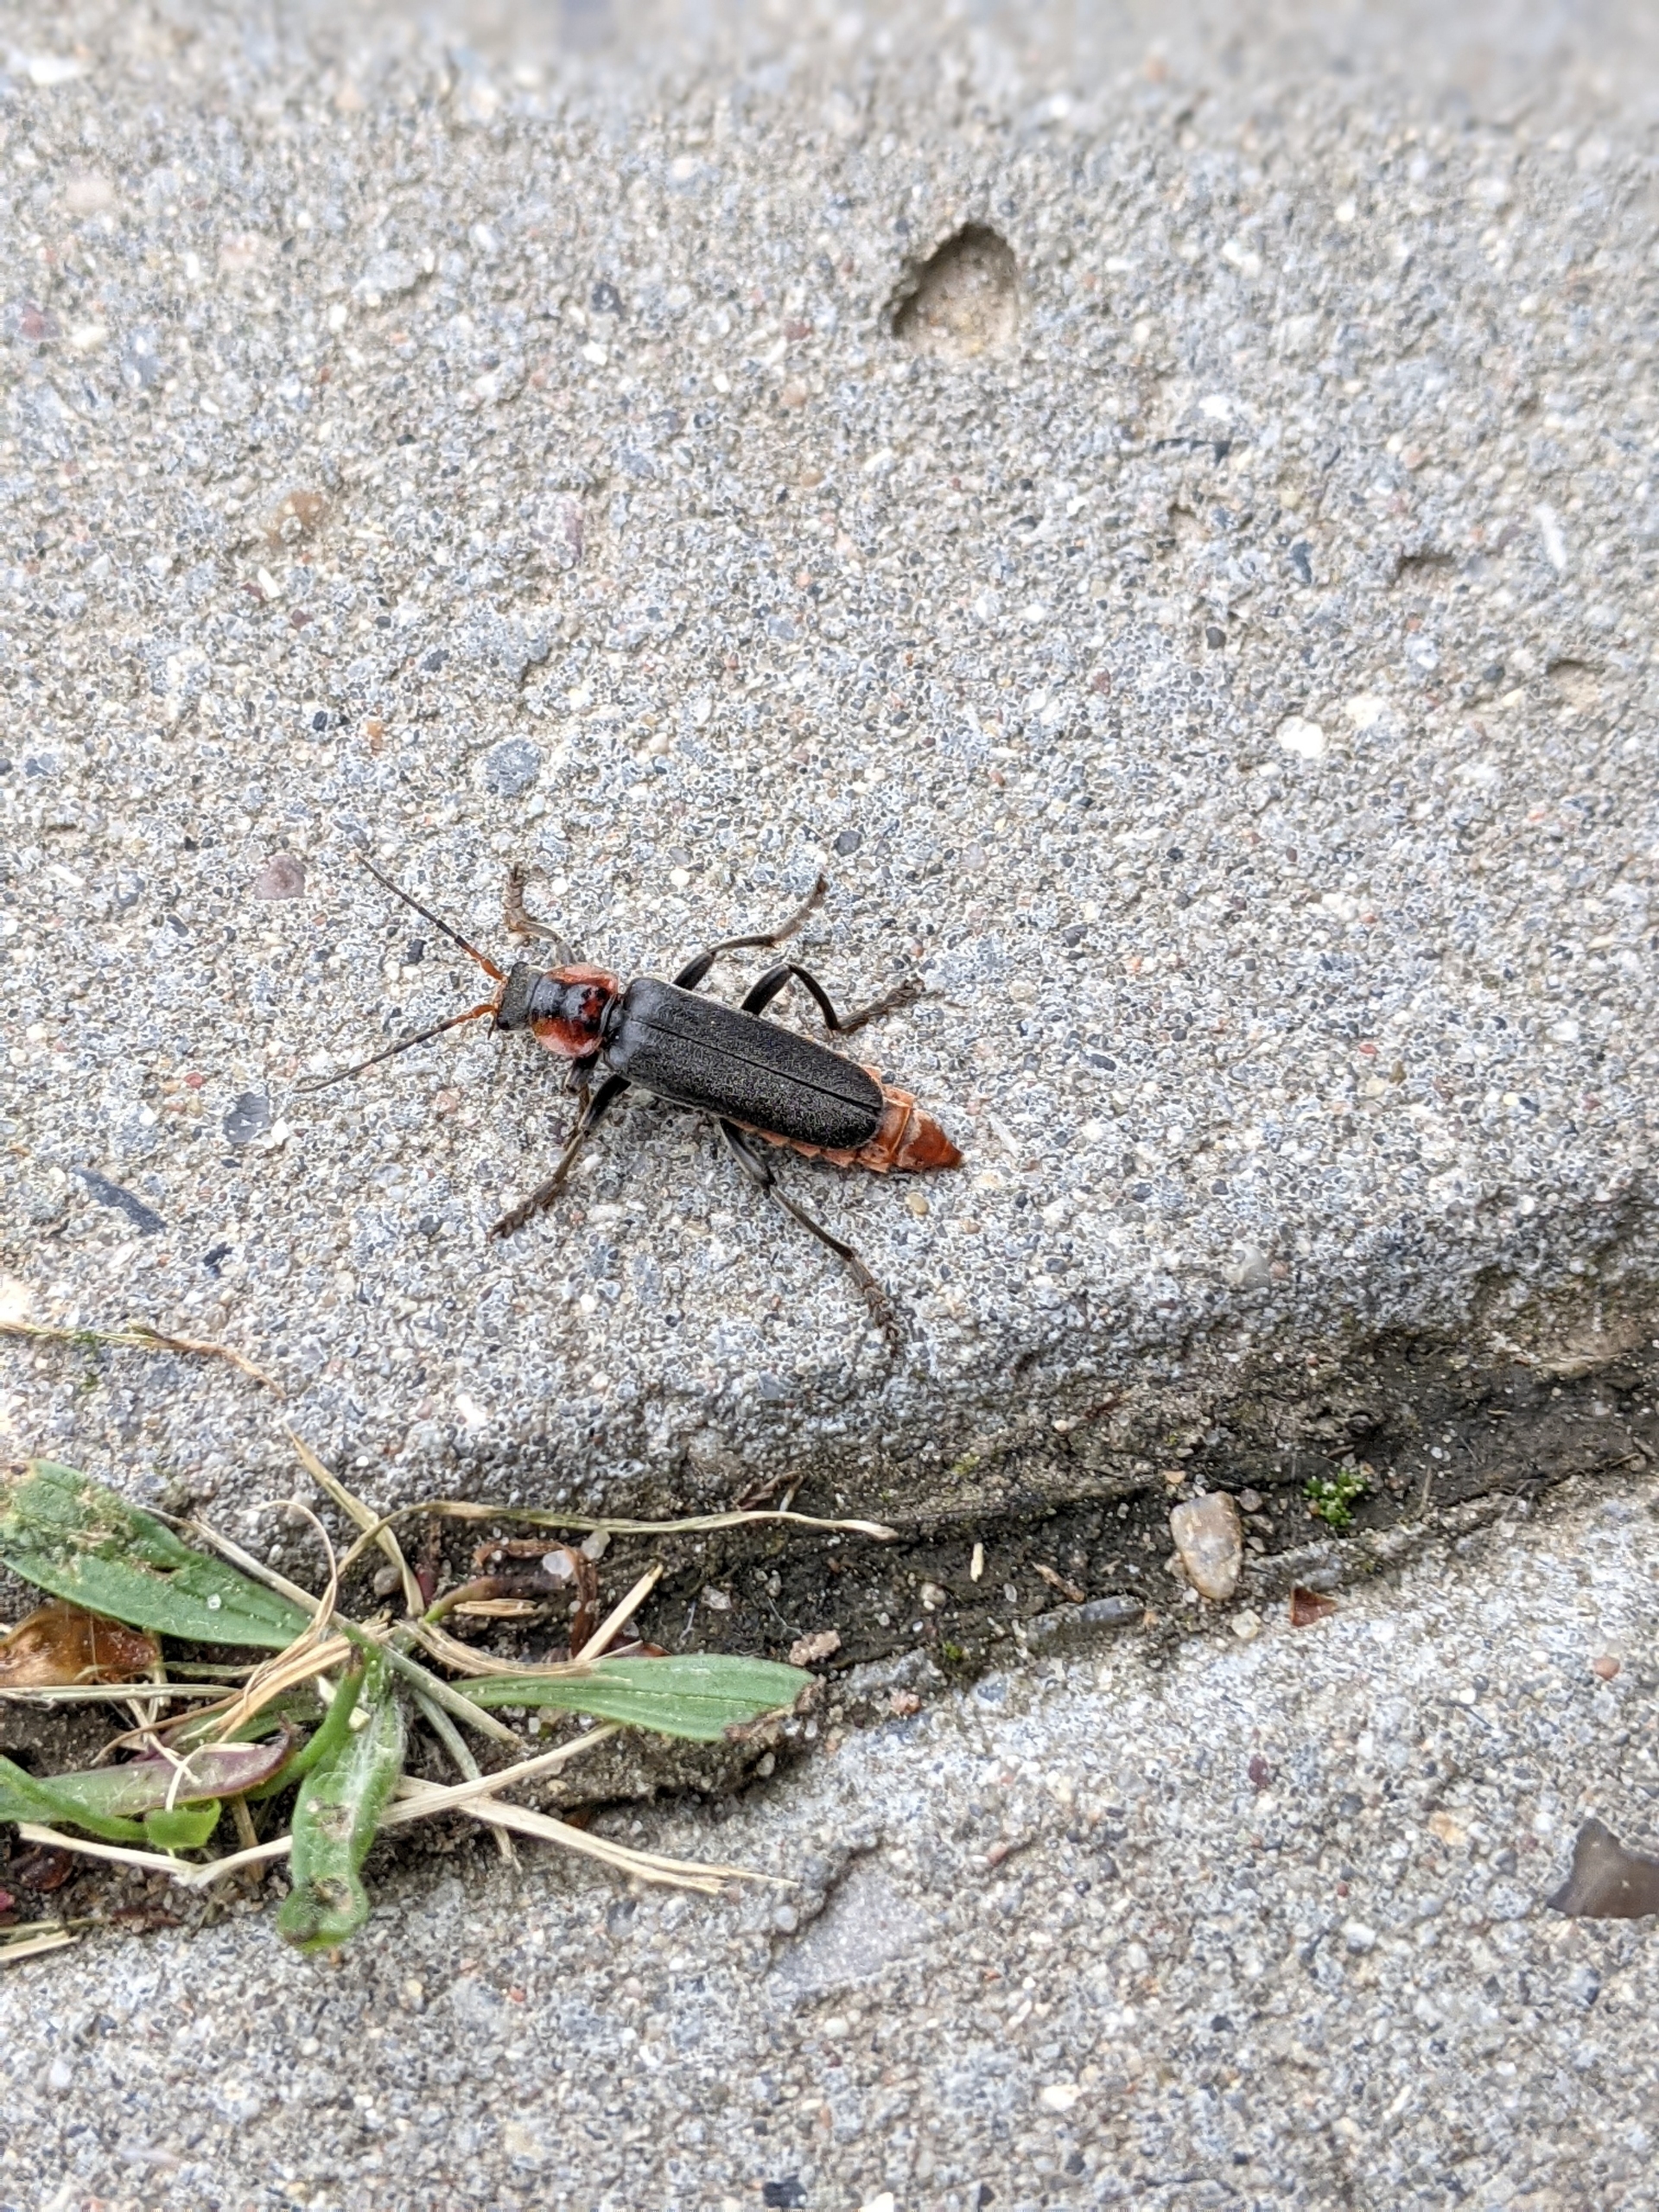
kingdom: Animalia
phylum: Arthropoda
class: Insecta
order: Coleoptera
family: Cantharidae
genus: Cantharis
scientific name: Cantharis fusca
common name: Stor blødvinge
